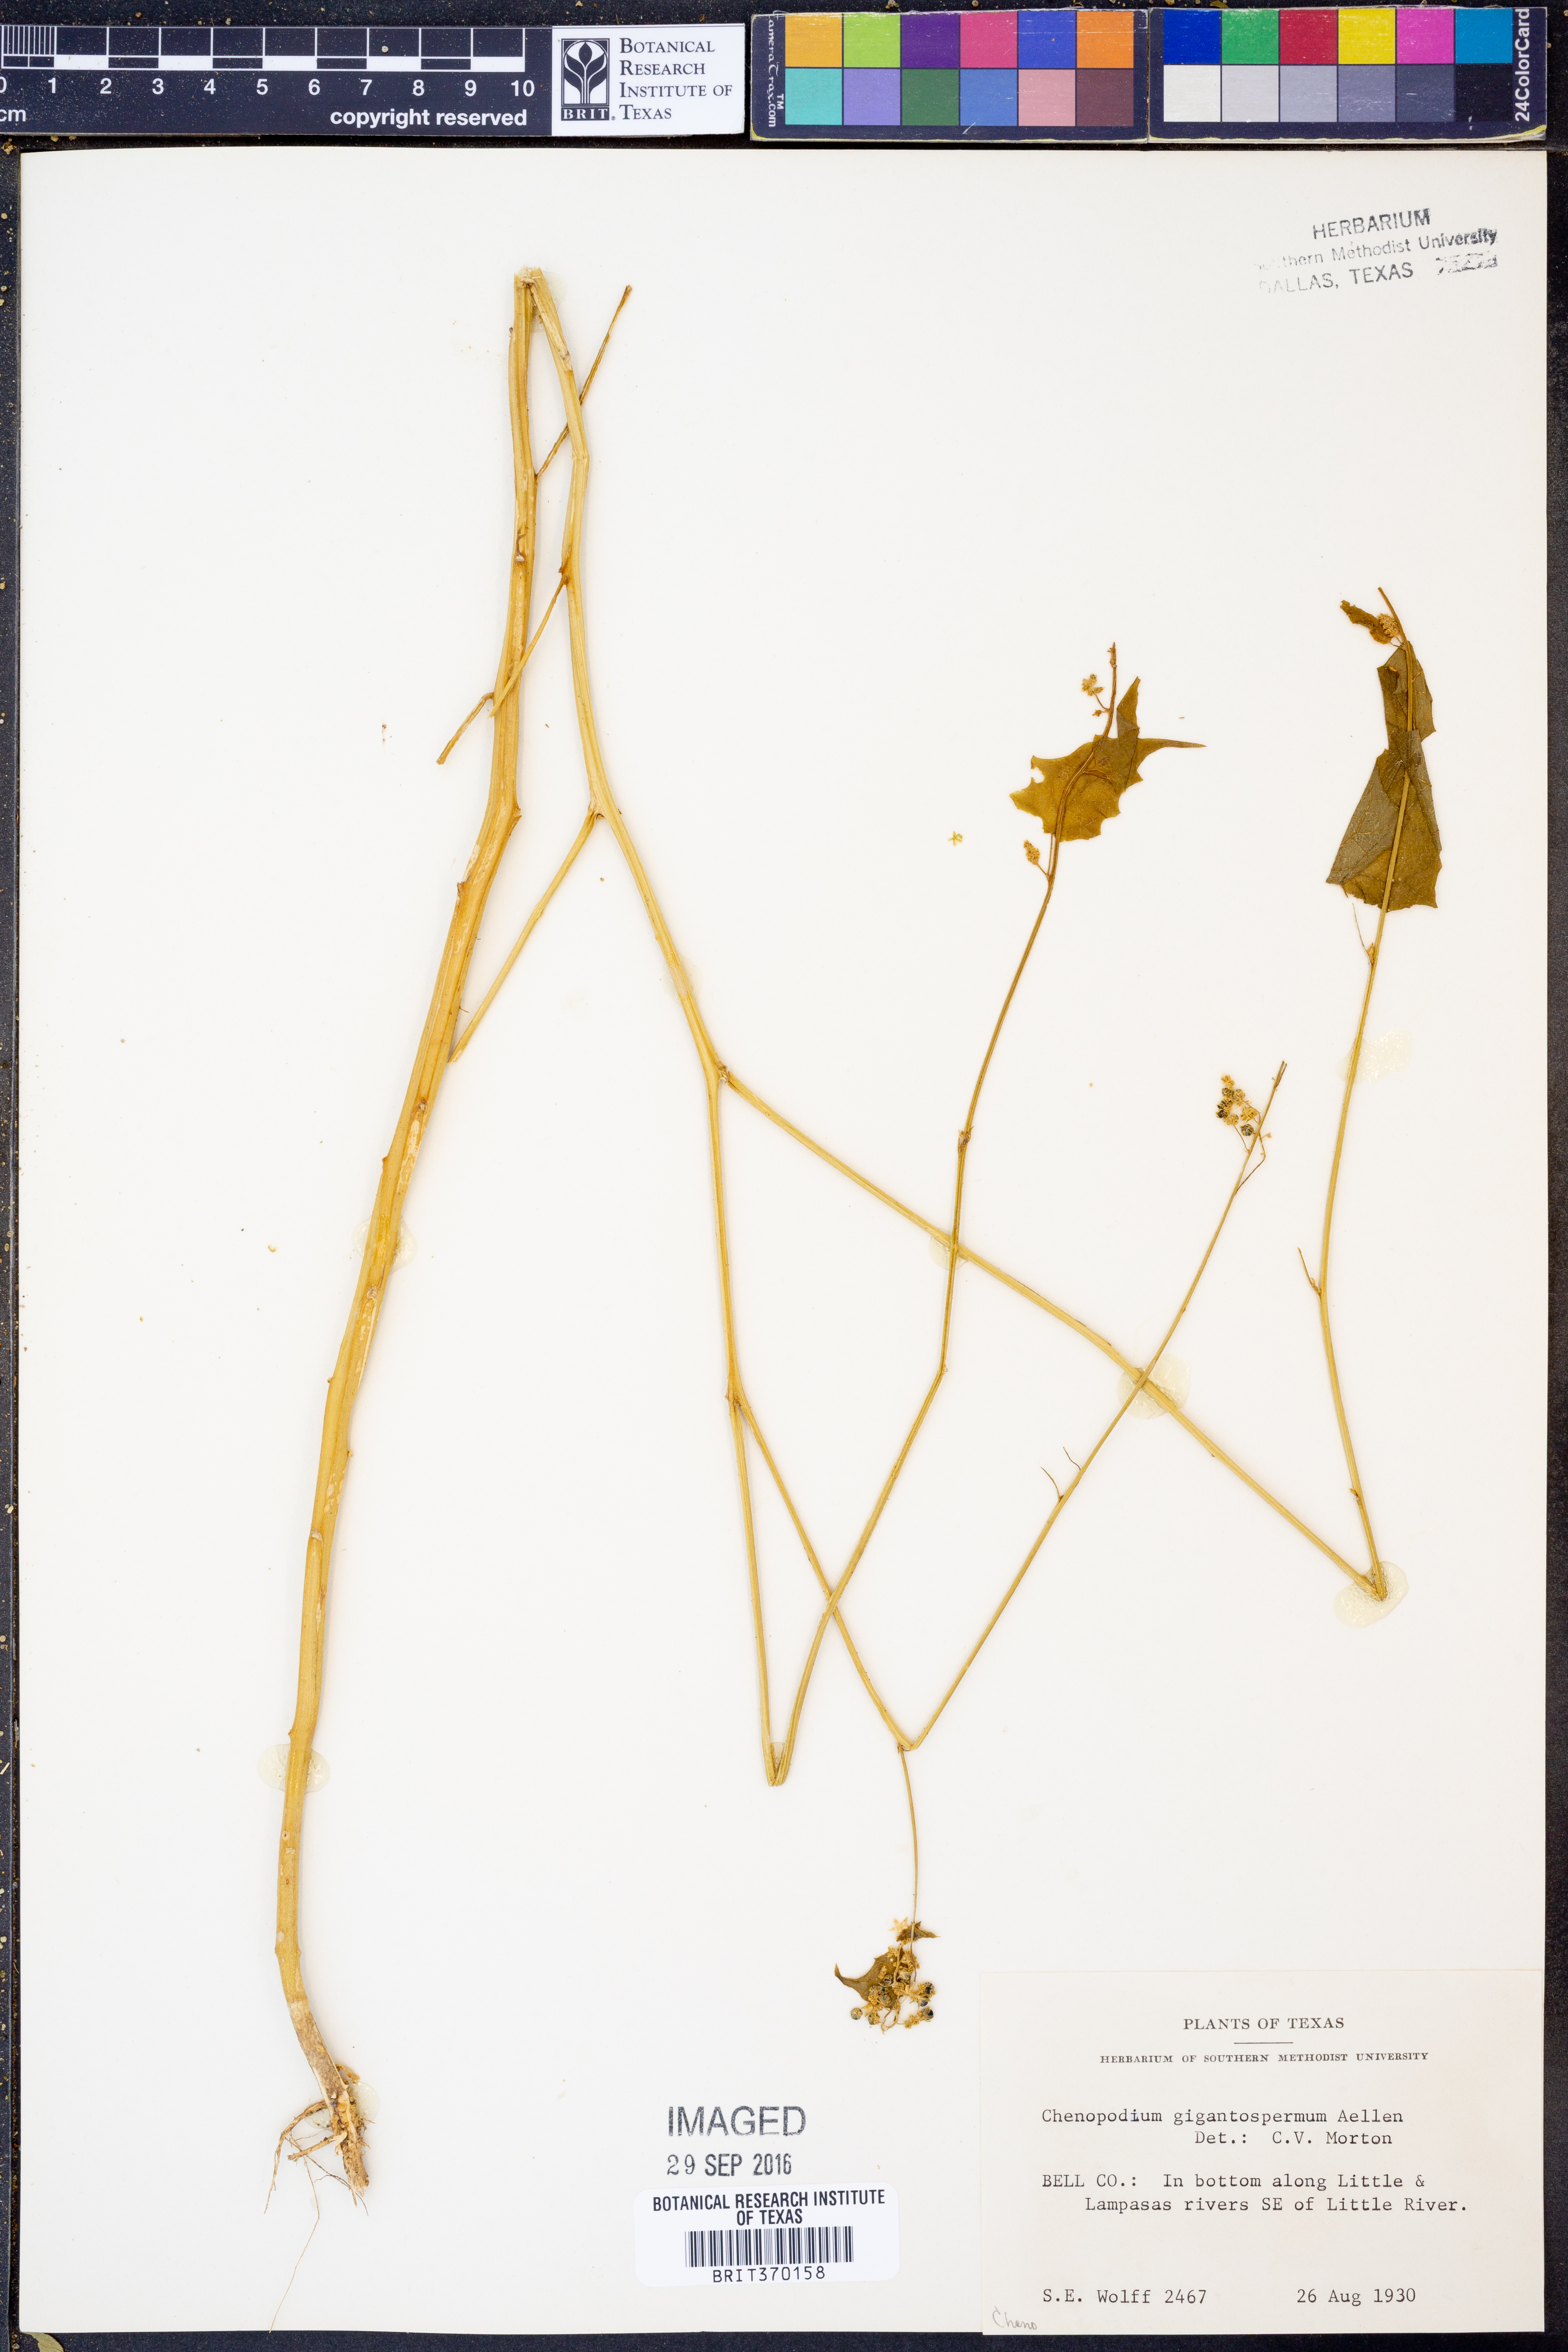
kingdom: Plantae
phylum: Tracheophyta
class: Magnoliopsida
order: Caryophyllales
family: Amaranthaceae
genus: Chenopodiastrum
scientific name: Chenopodiastrum simplex
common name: Large-seed goosefoot
